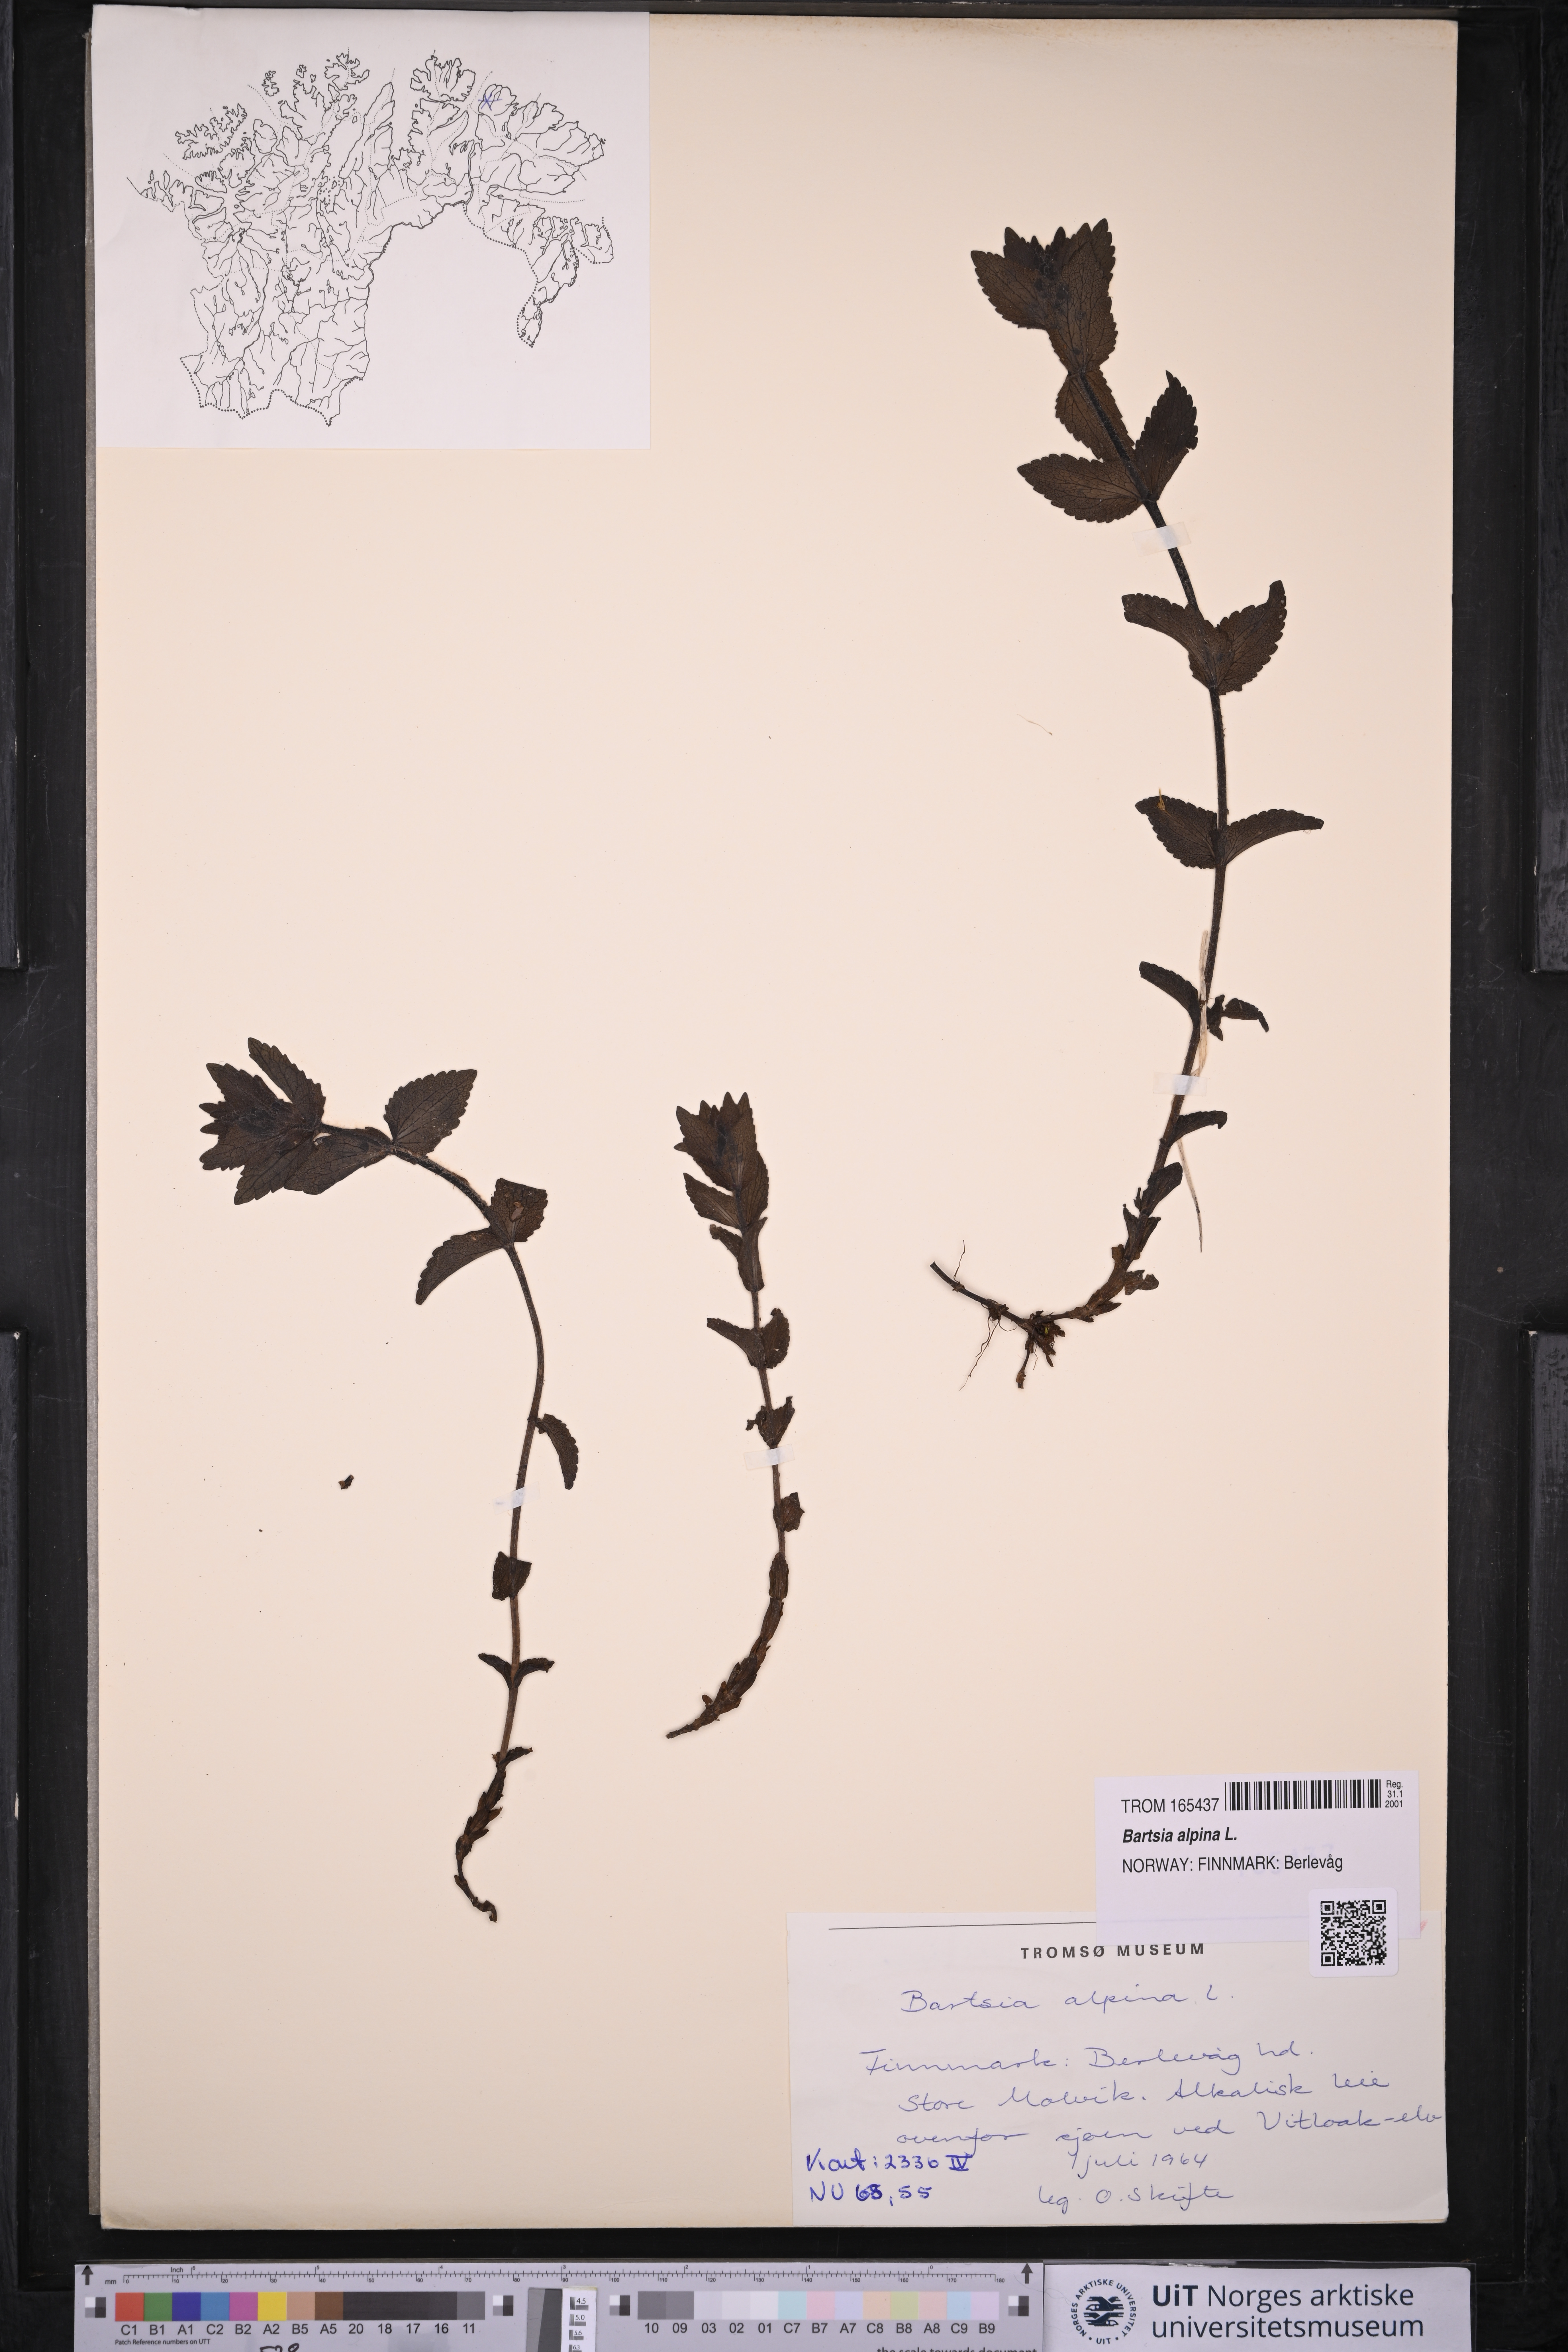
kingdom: Plantae
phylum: Tracheophyta
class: Magnoliopsida
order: Lamiales
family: Orobanchaceae
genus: Bartsia
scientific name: Bartsia alpina
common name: Alpine bartsia
